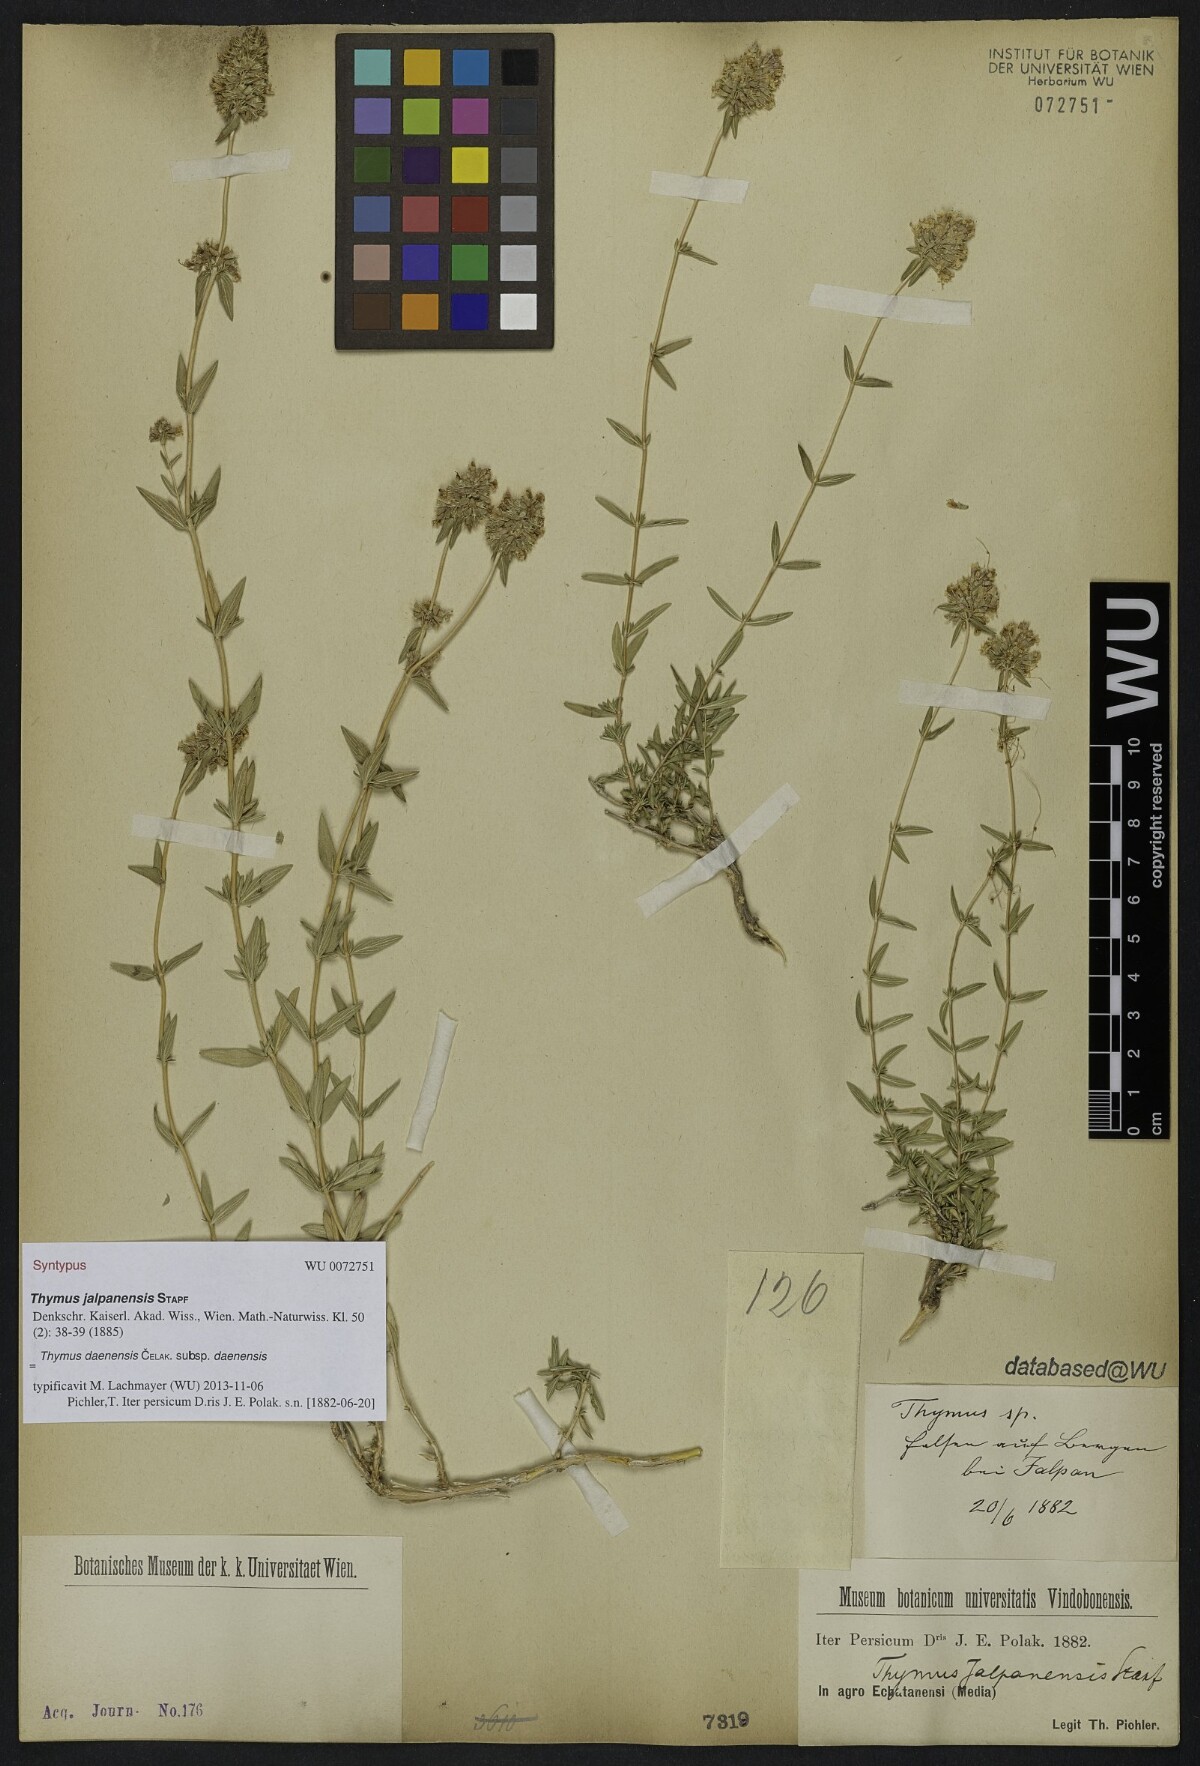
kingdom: Plantae
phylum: Tracheophyta
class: Magnoliopsida
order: Lamiales
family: Lamiaceae
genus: Thymus
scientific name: Thymus daenensis
